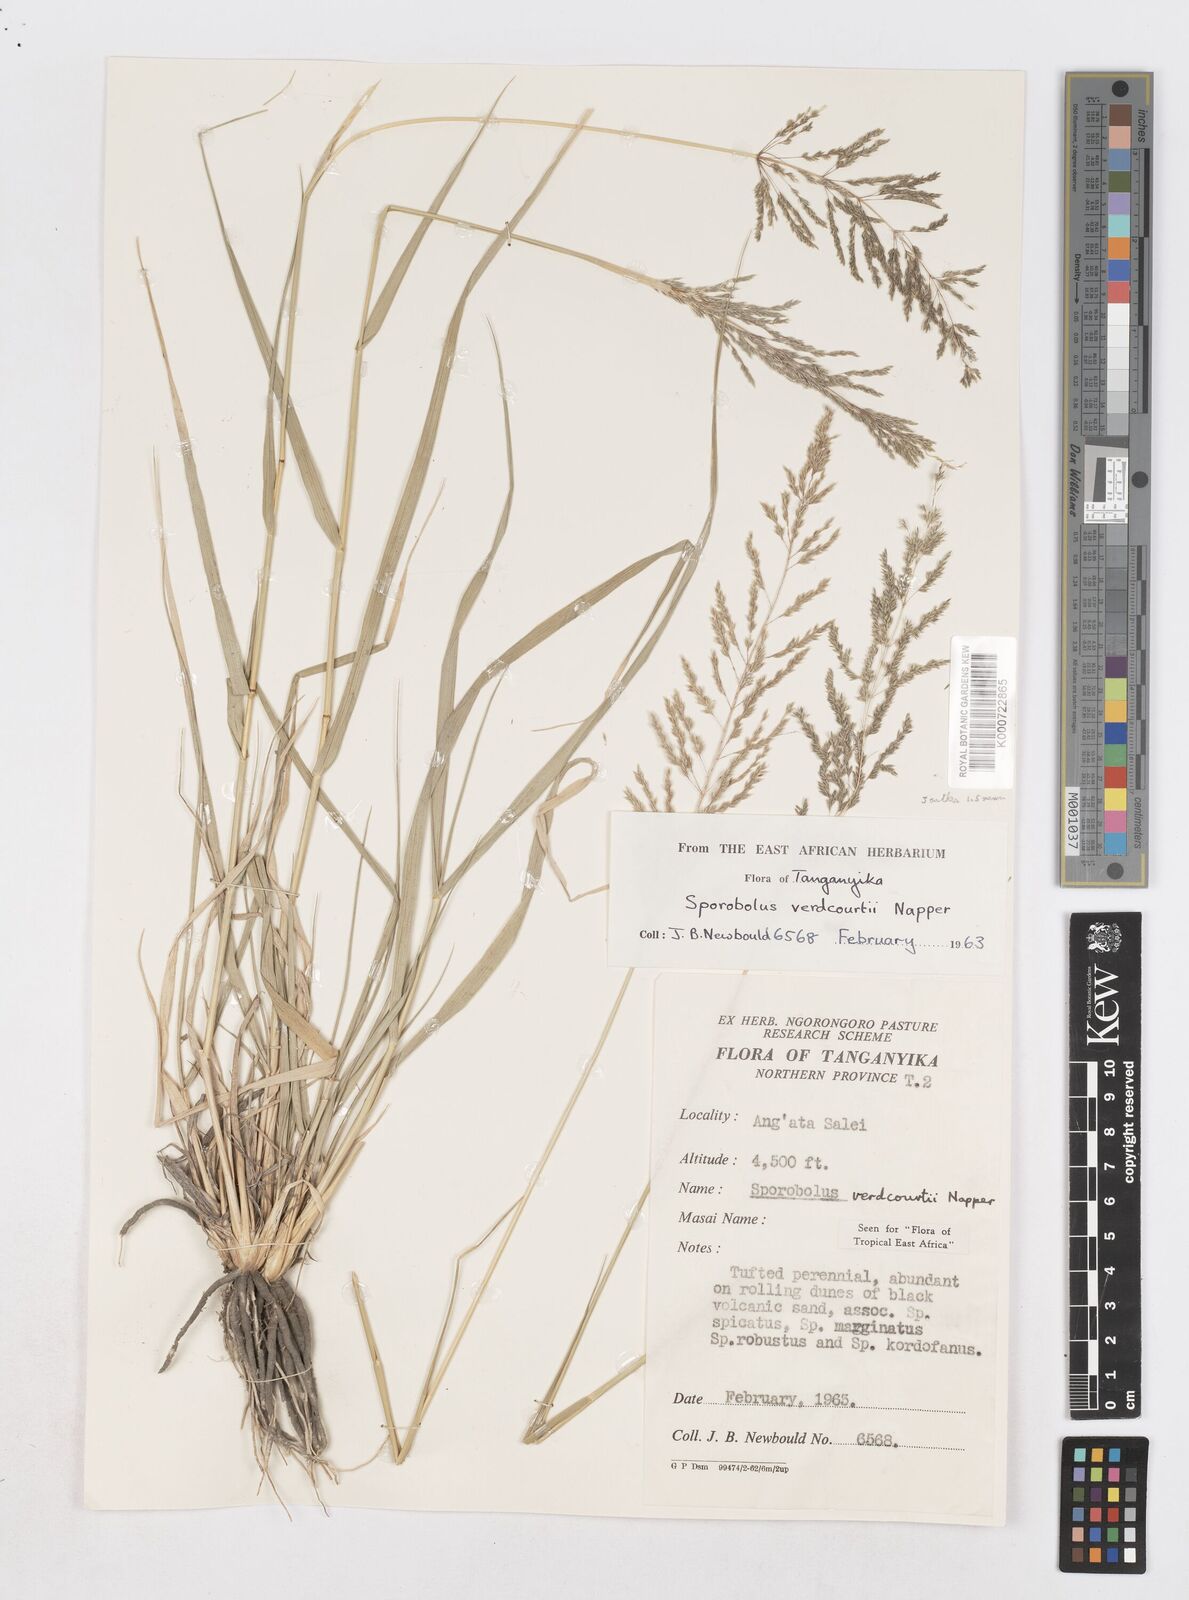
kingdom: Plantae
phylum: Tracheophyta
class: Liliopsida
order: Poales
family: Poaceae
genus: Sporobolus
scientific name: Sporobolus ioclados
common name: Pan dropseed
